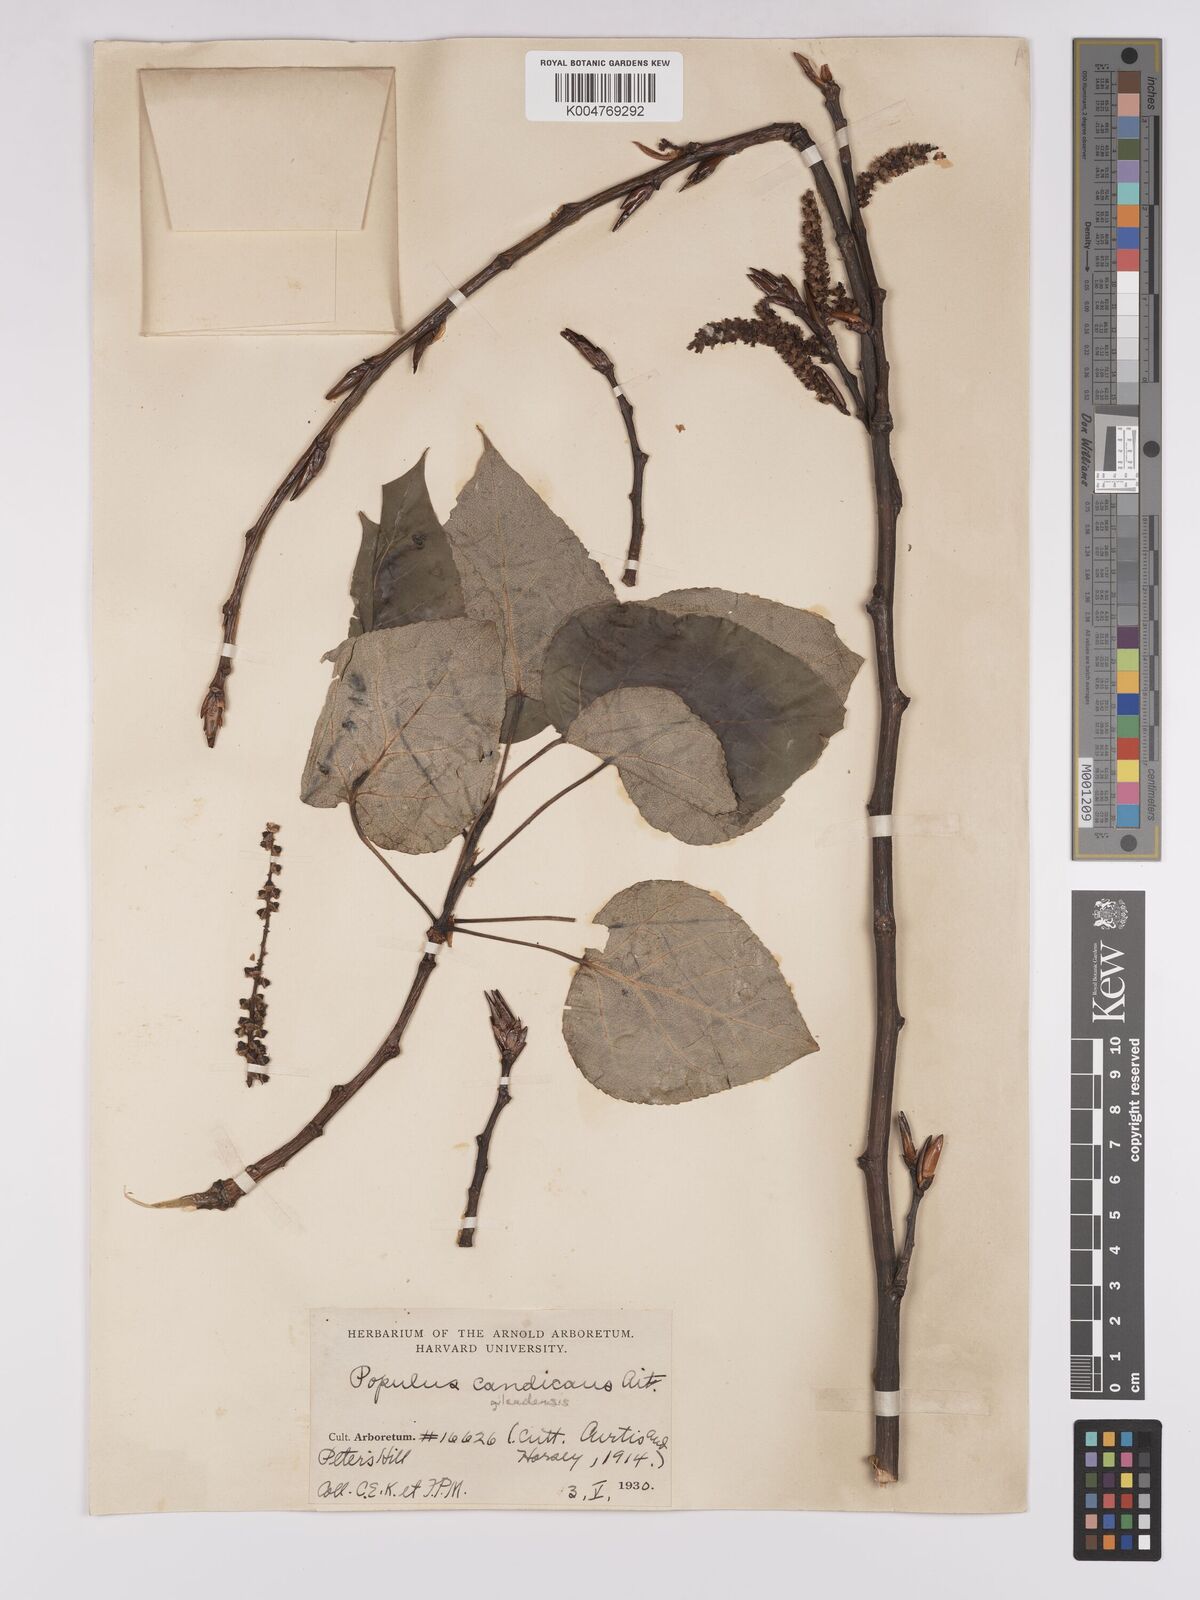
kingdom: Plantae
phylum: Tracheophyta
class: Magnoliopsida
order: Malpighiales
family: Salicaceae
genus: Populus
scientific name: Populus balsamifera
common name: Balsam poplar
